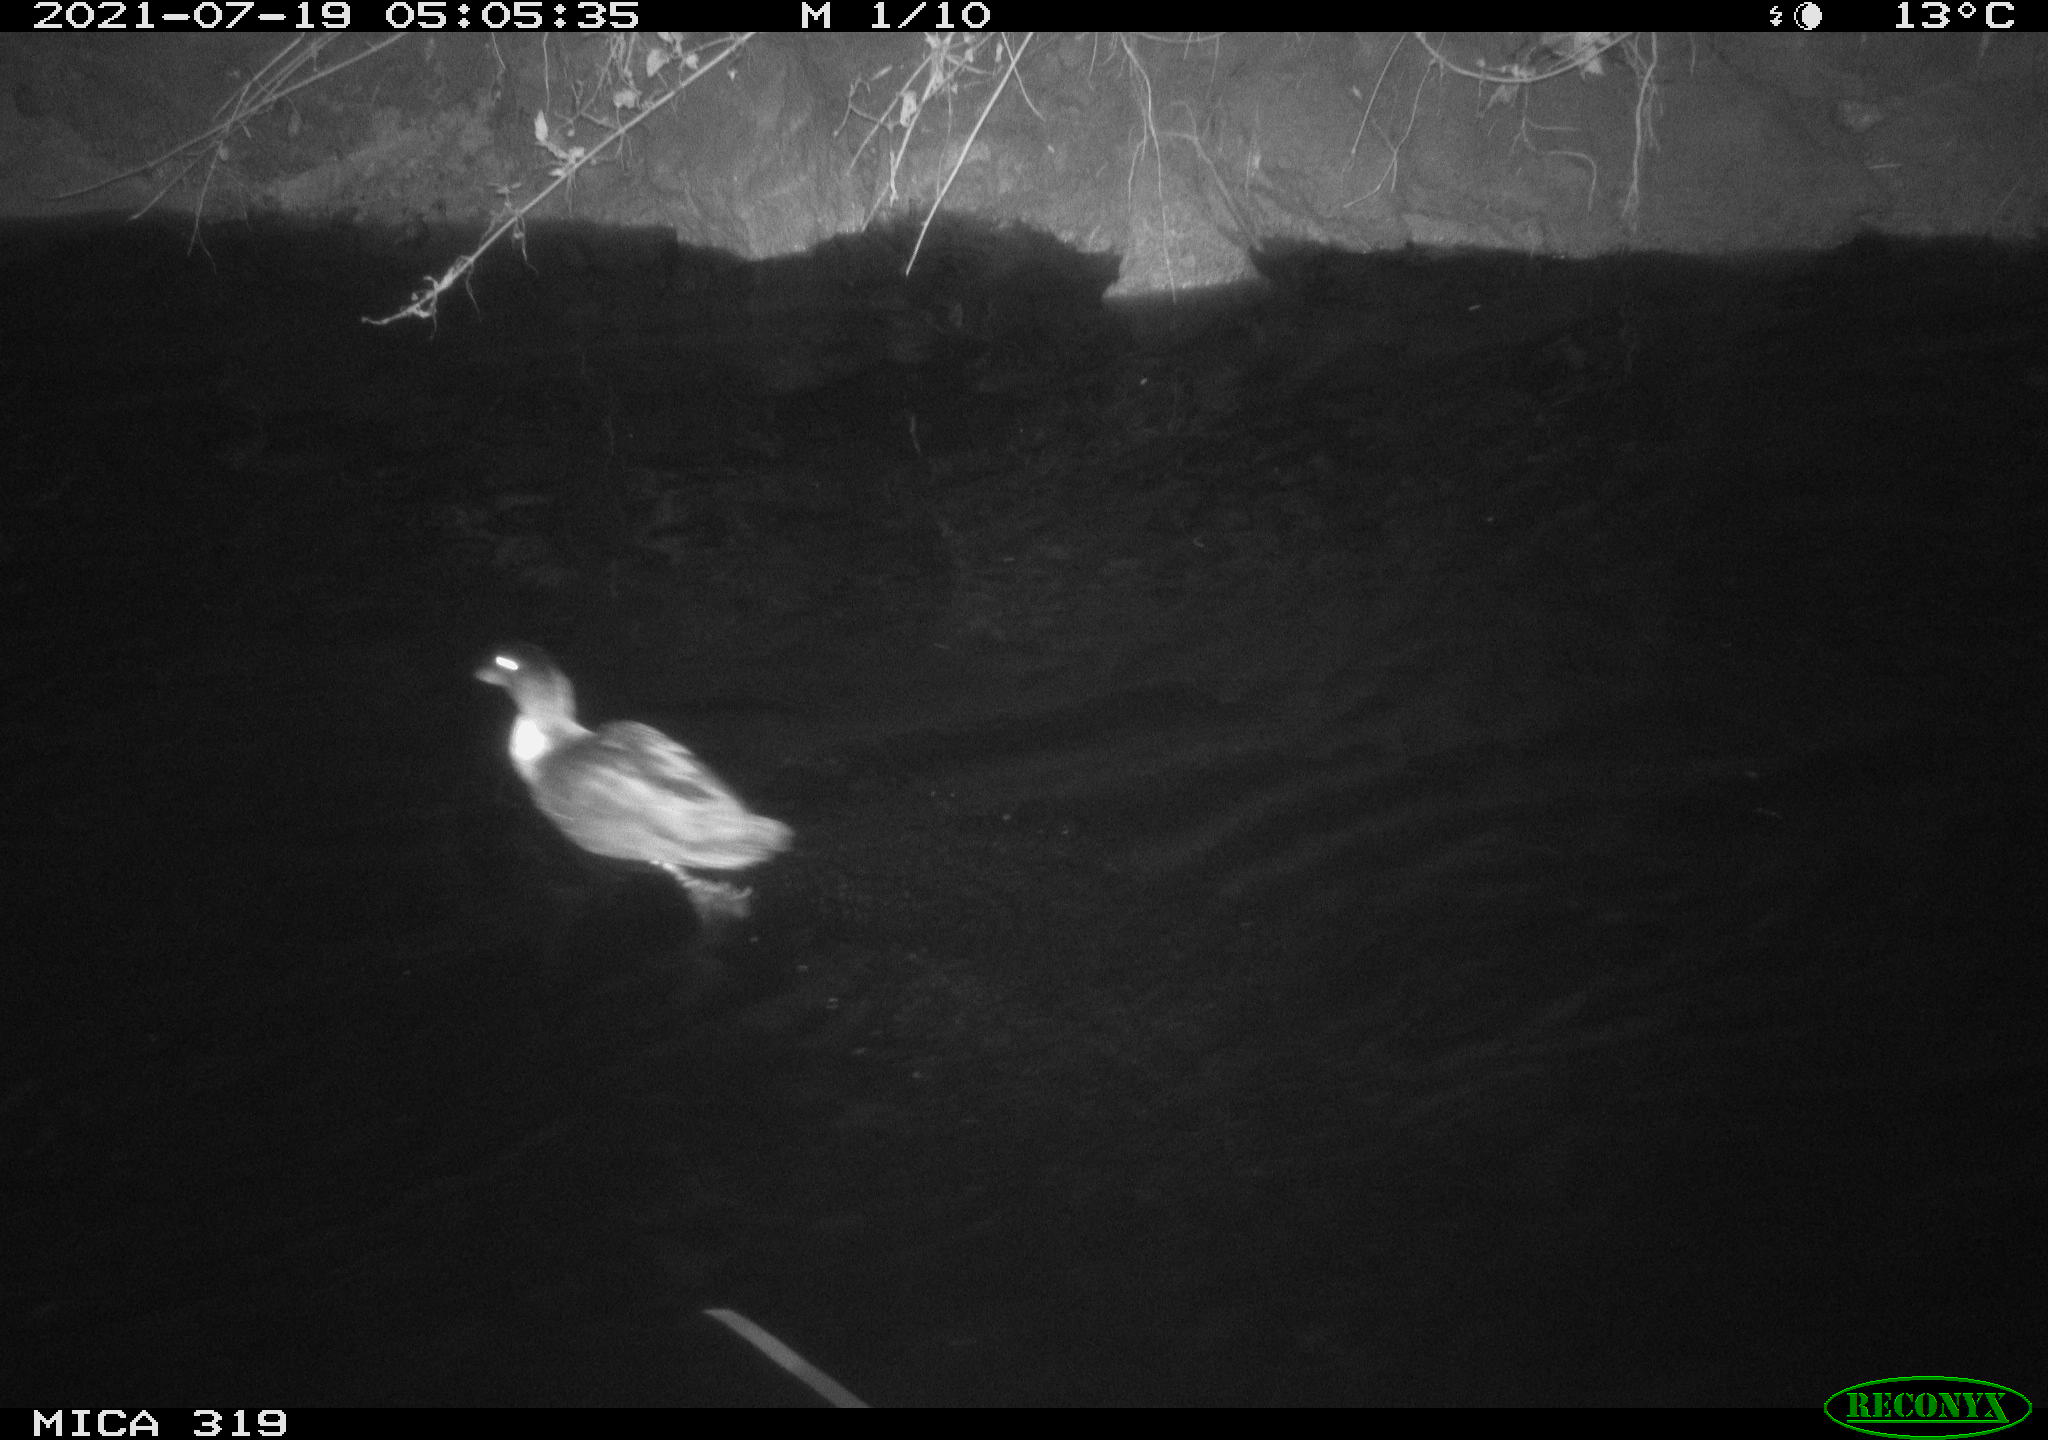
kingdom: Animalia
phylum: Chordata
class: Aves
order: Anseriformes
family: Anatidae
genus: Anas
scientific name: Anas platyrhynchos
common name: Mallard
